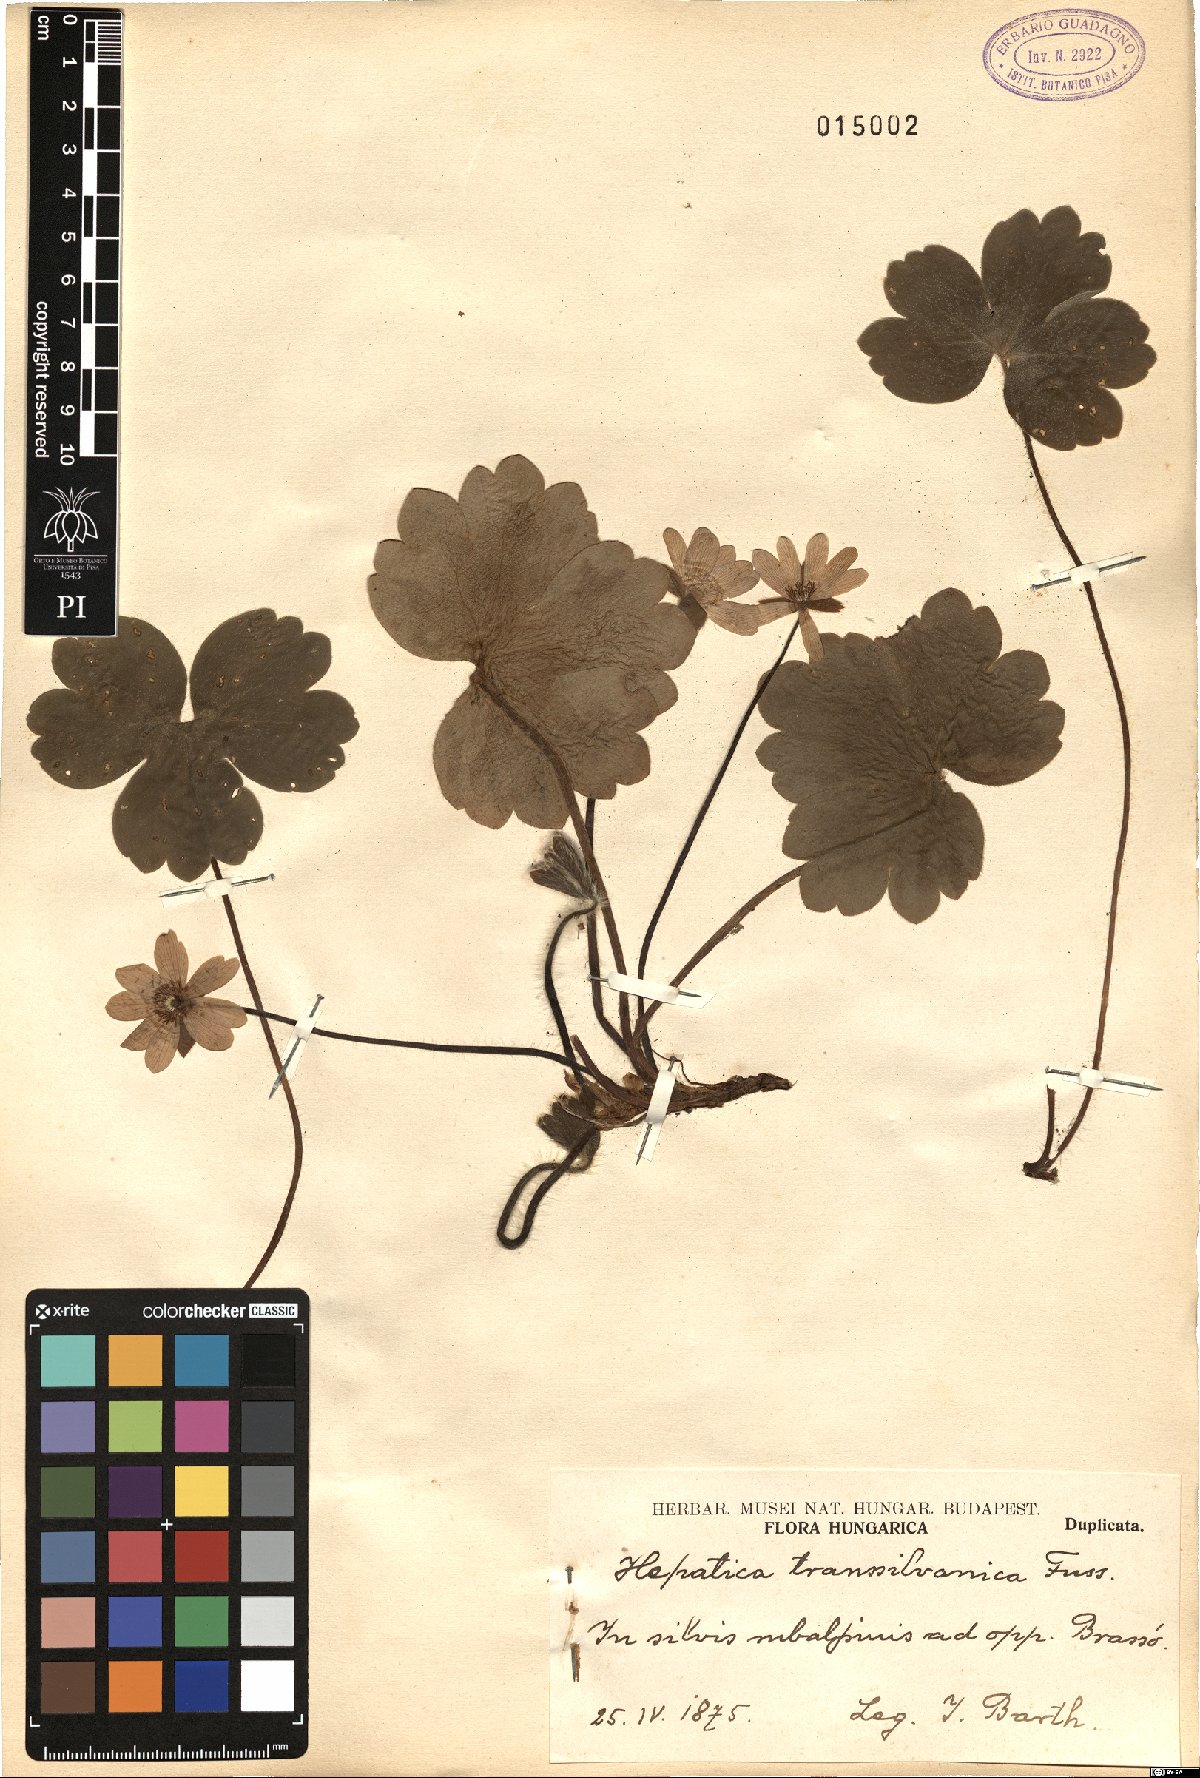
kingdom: Plantae
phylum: Tracheophyta
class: Magnoliopsida
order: Ranunculales
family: Ranunculaceae
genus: Hepatica
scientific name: Hepatica transsilvanica
